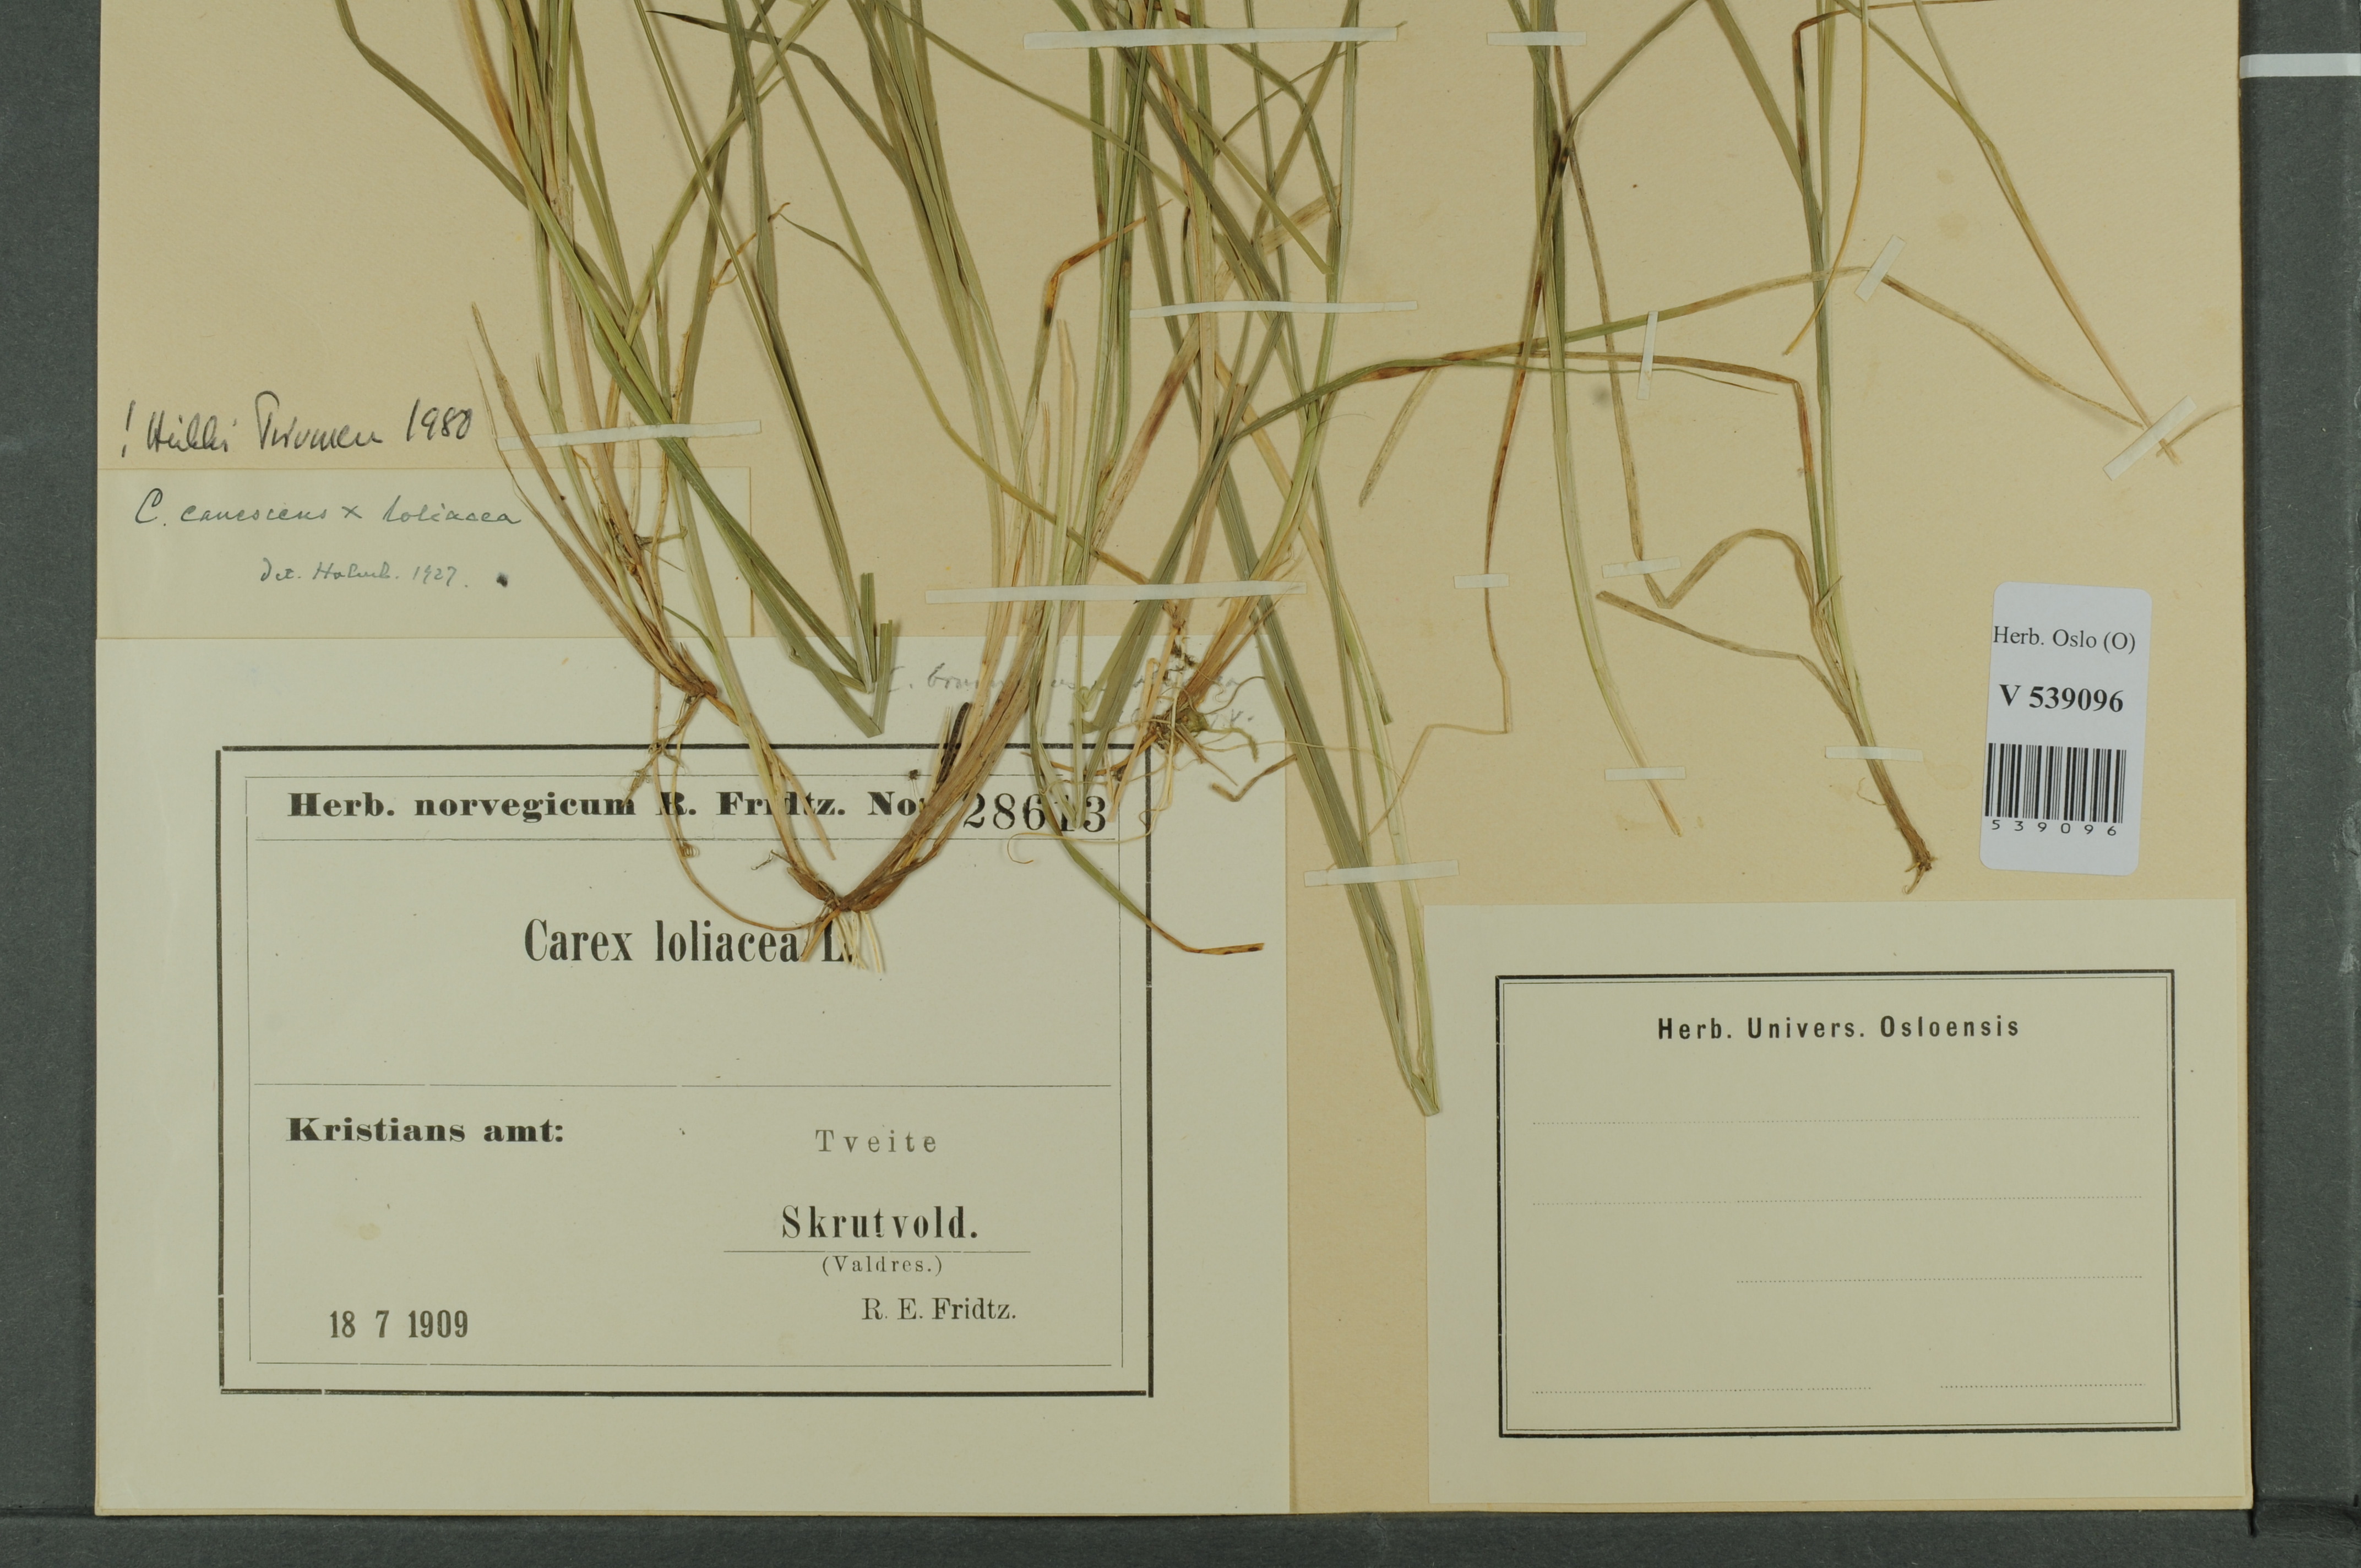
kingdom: Plantae
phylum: Tracheophyta
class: Liliopsida
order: Poales
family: Cyperaceae
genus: Carex
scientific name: Carex
